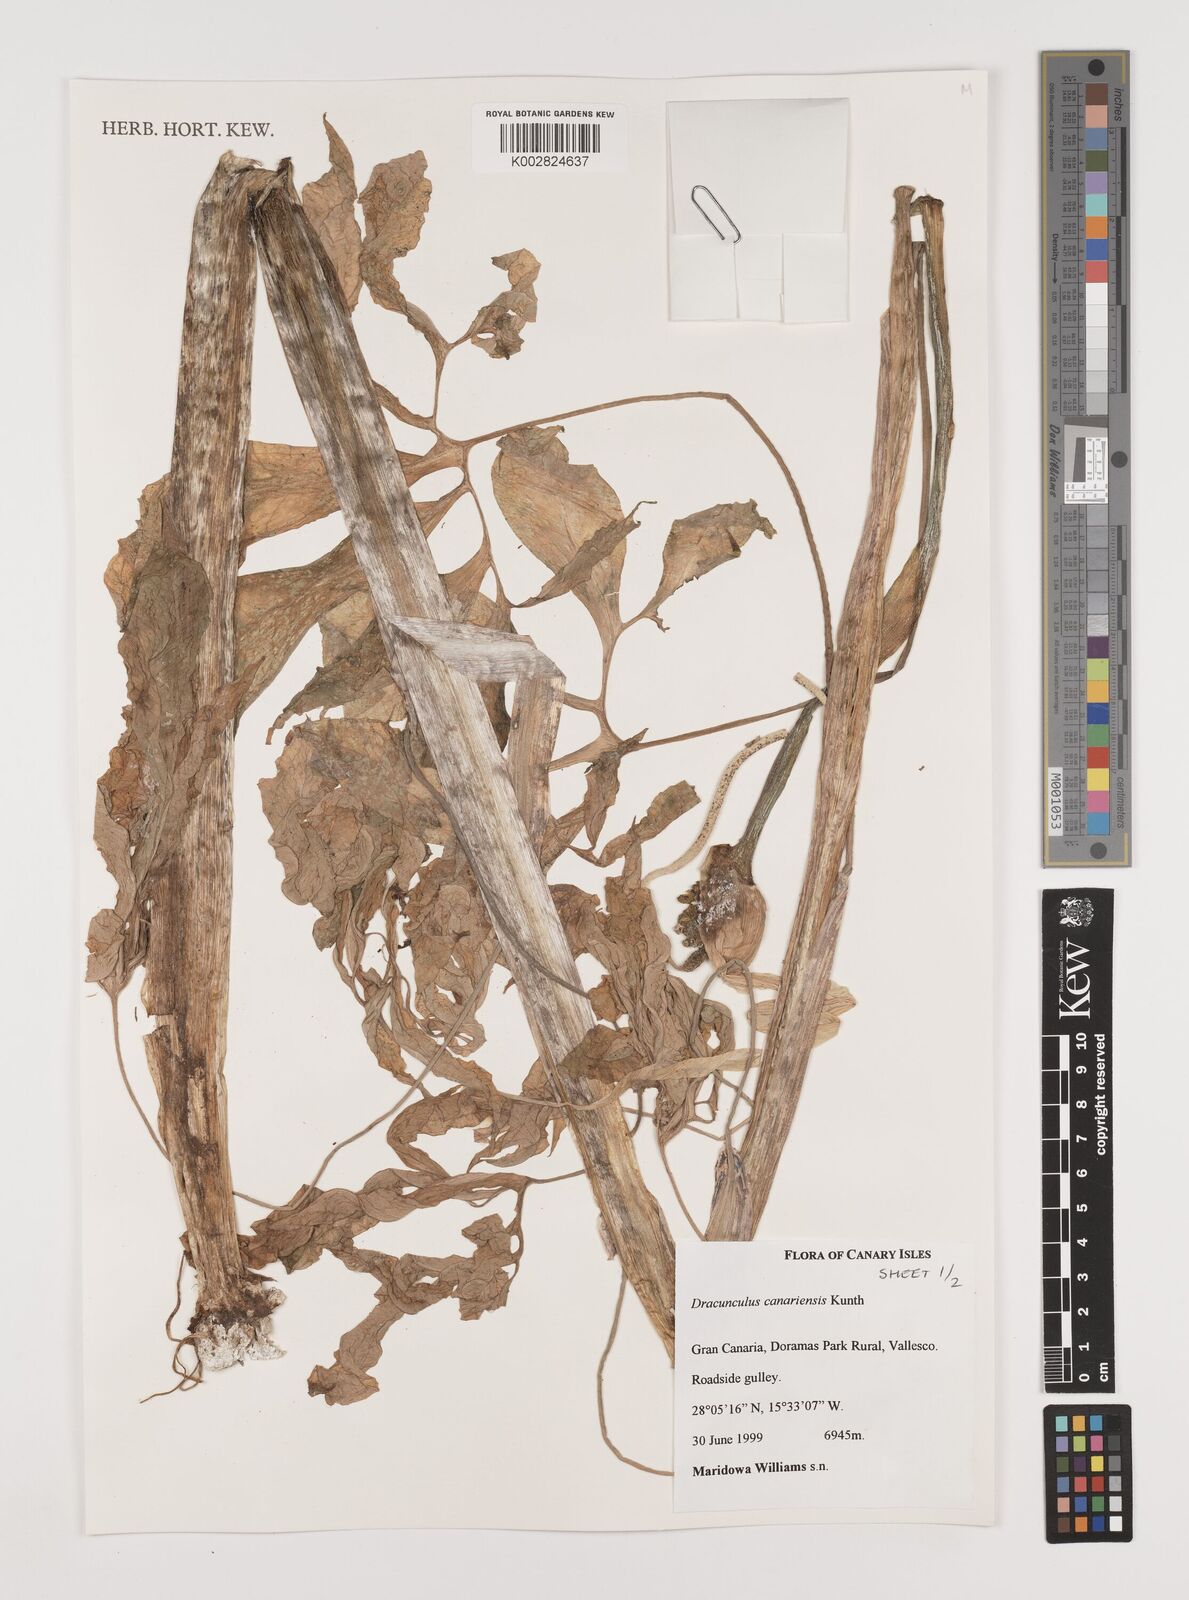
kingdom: Plantae
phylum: Tracheophyta
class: Liliopsida
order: Alismatales
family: Araceae
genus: Dracunculus
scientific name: Dracunculus
